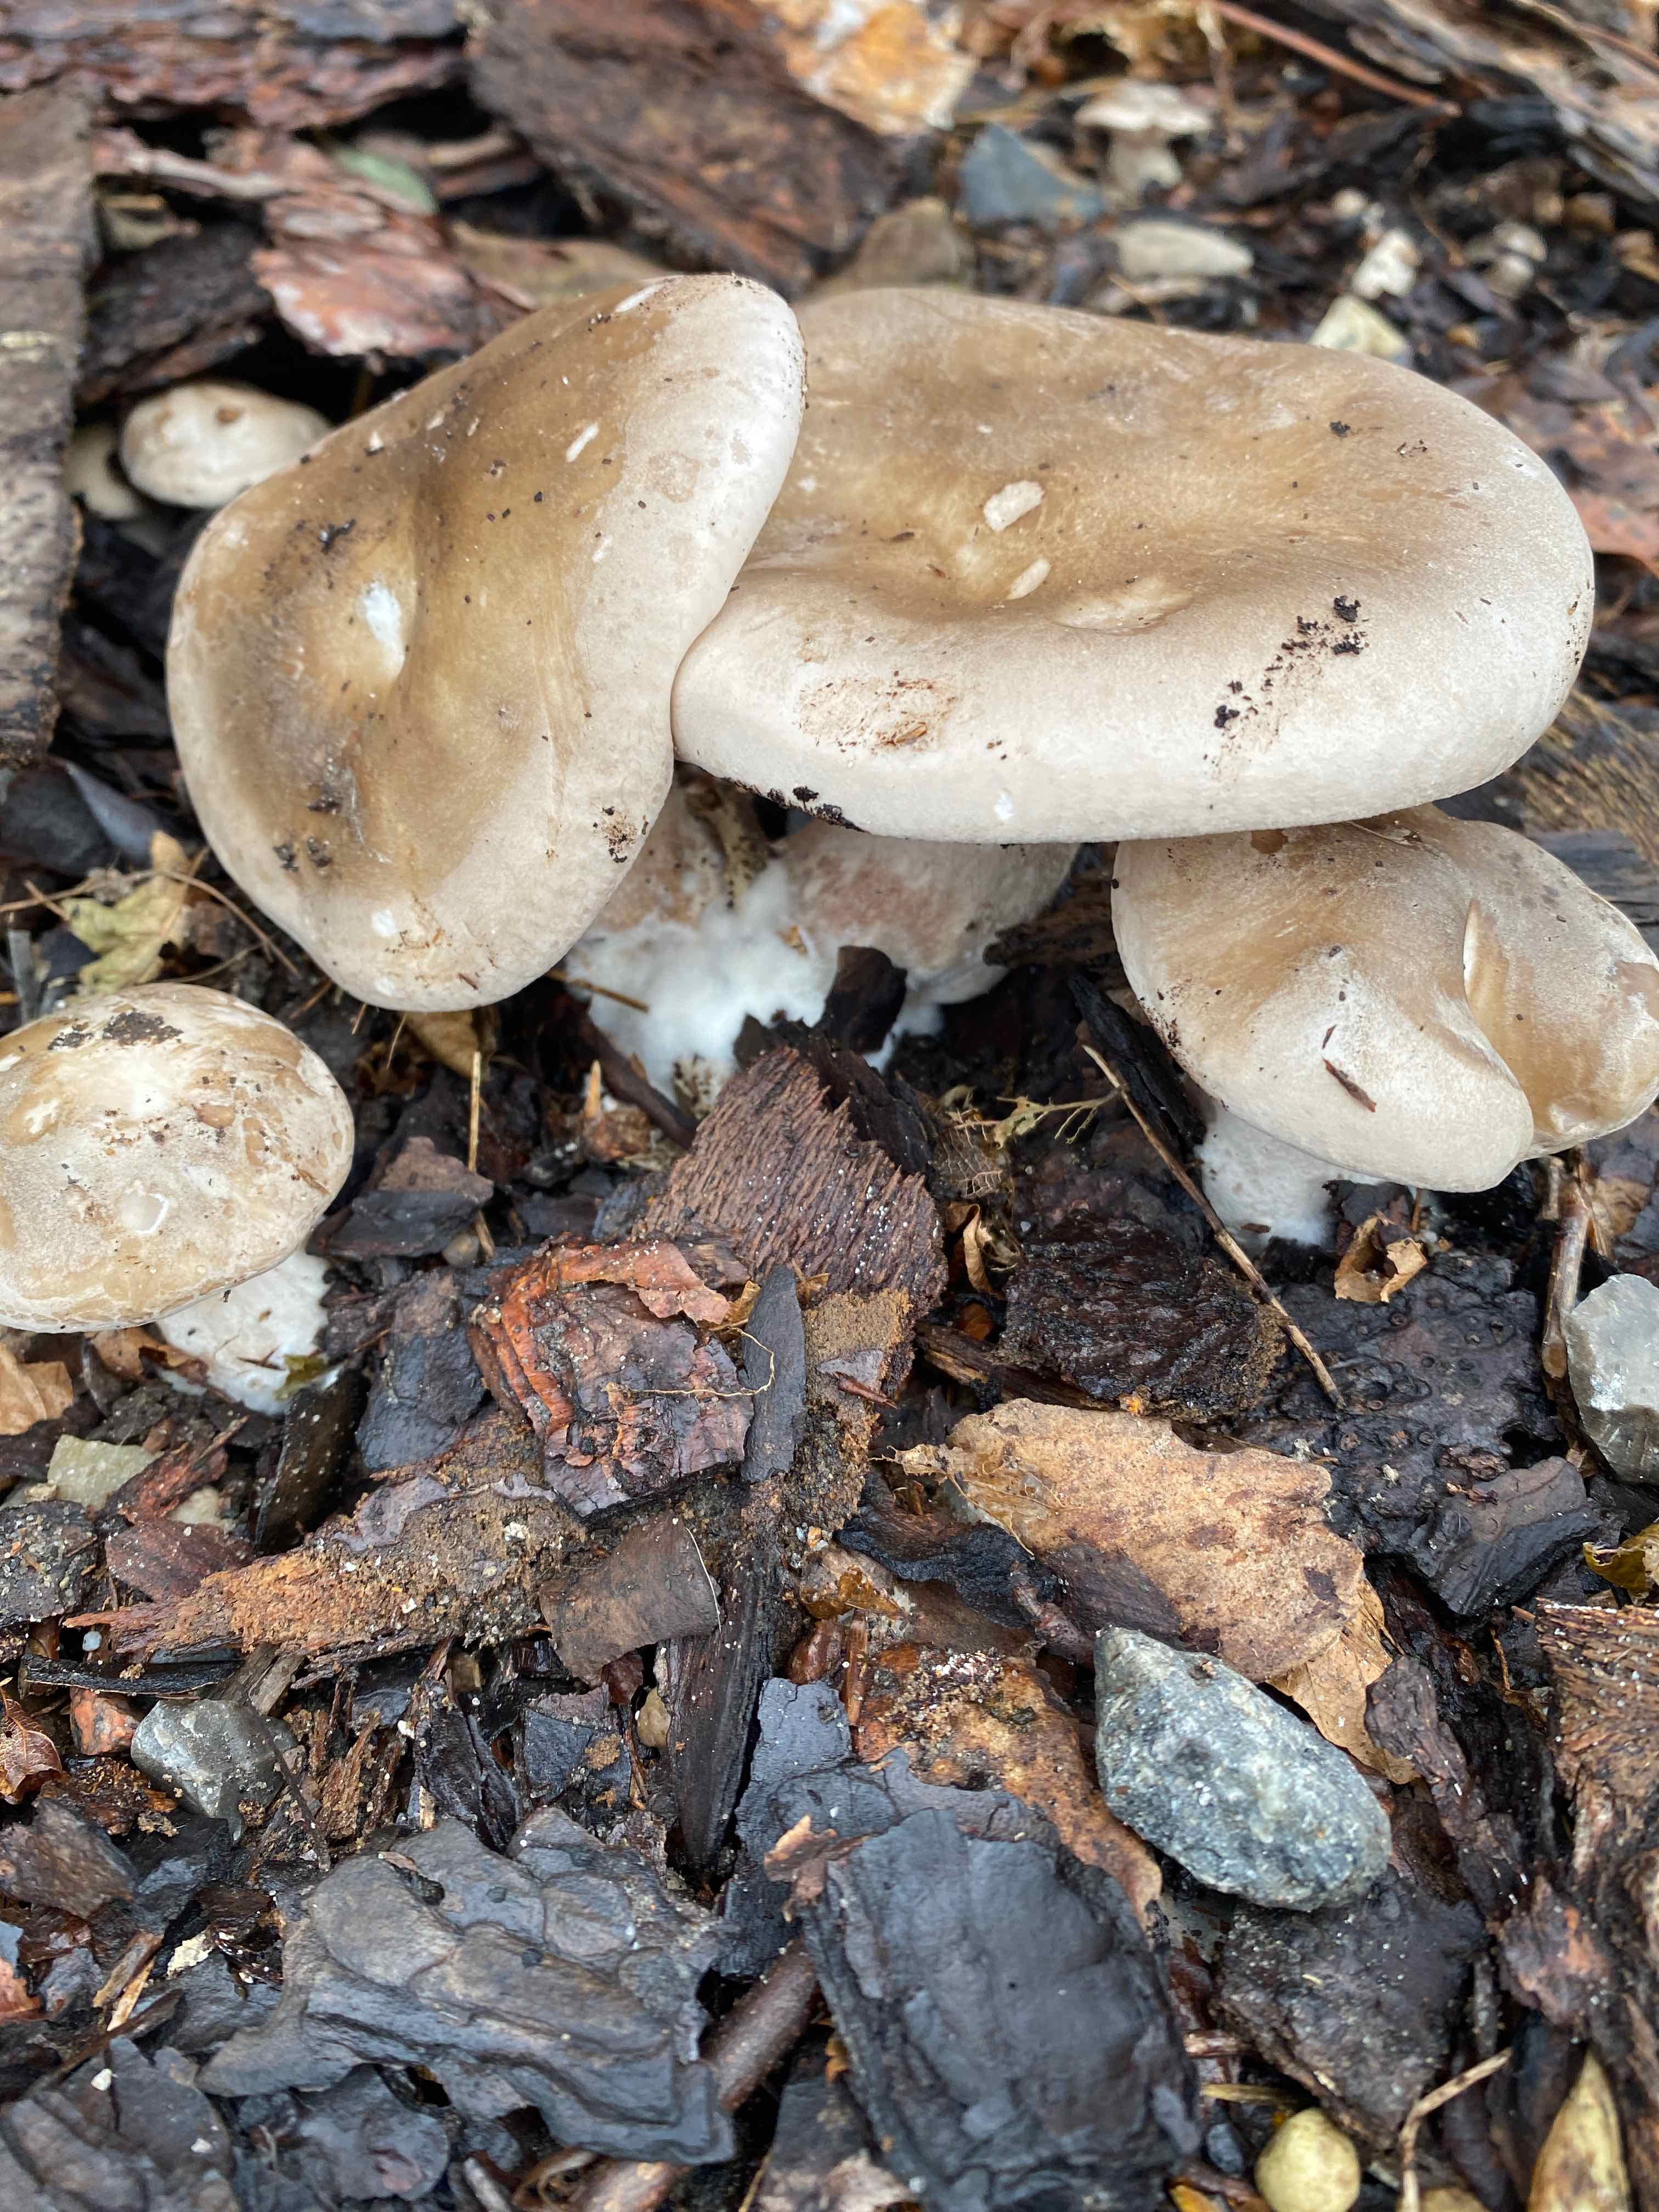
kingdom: Fungi
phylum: Basidiomycota
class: Agaricomycetes
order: Agaricales
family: Tricholomataceae
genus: Lepista
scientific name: Lepista
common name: hekseringshat
